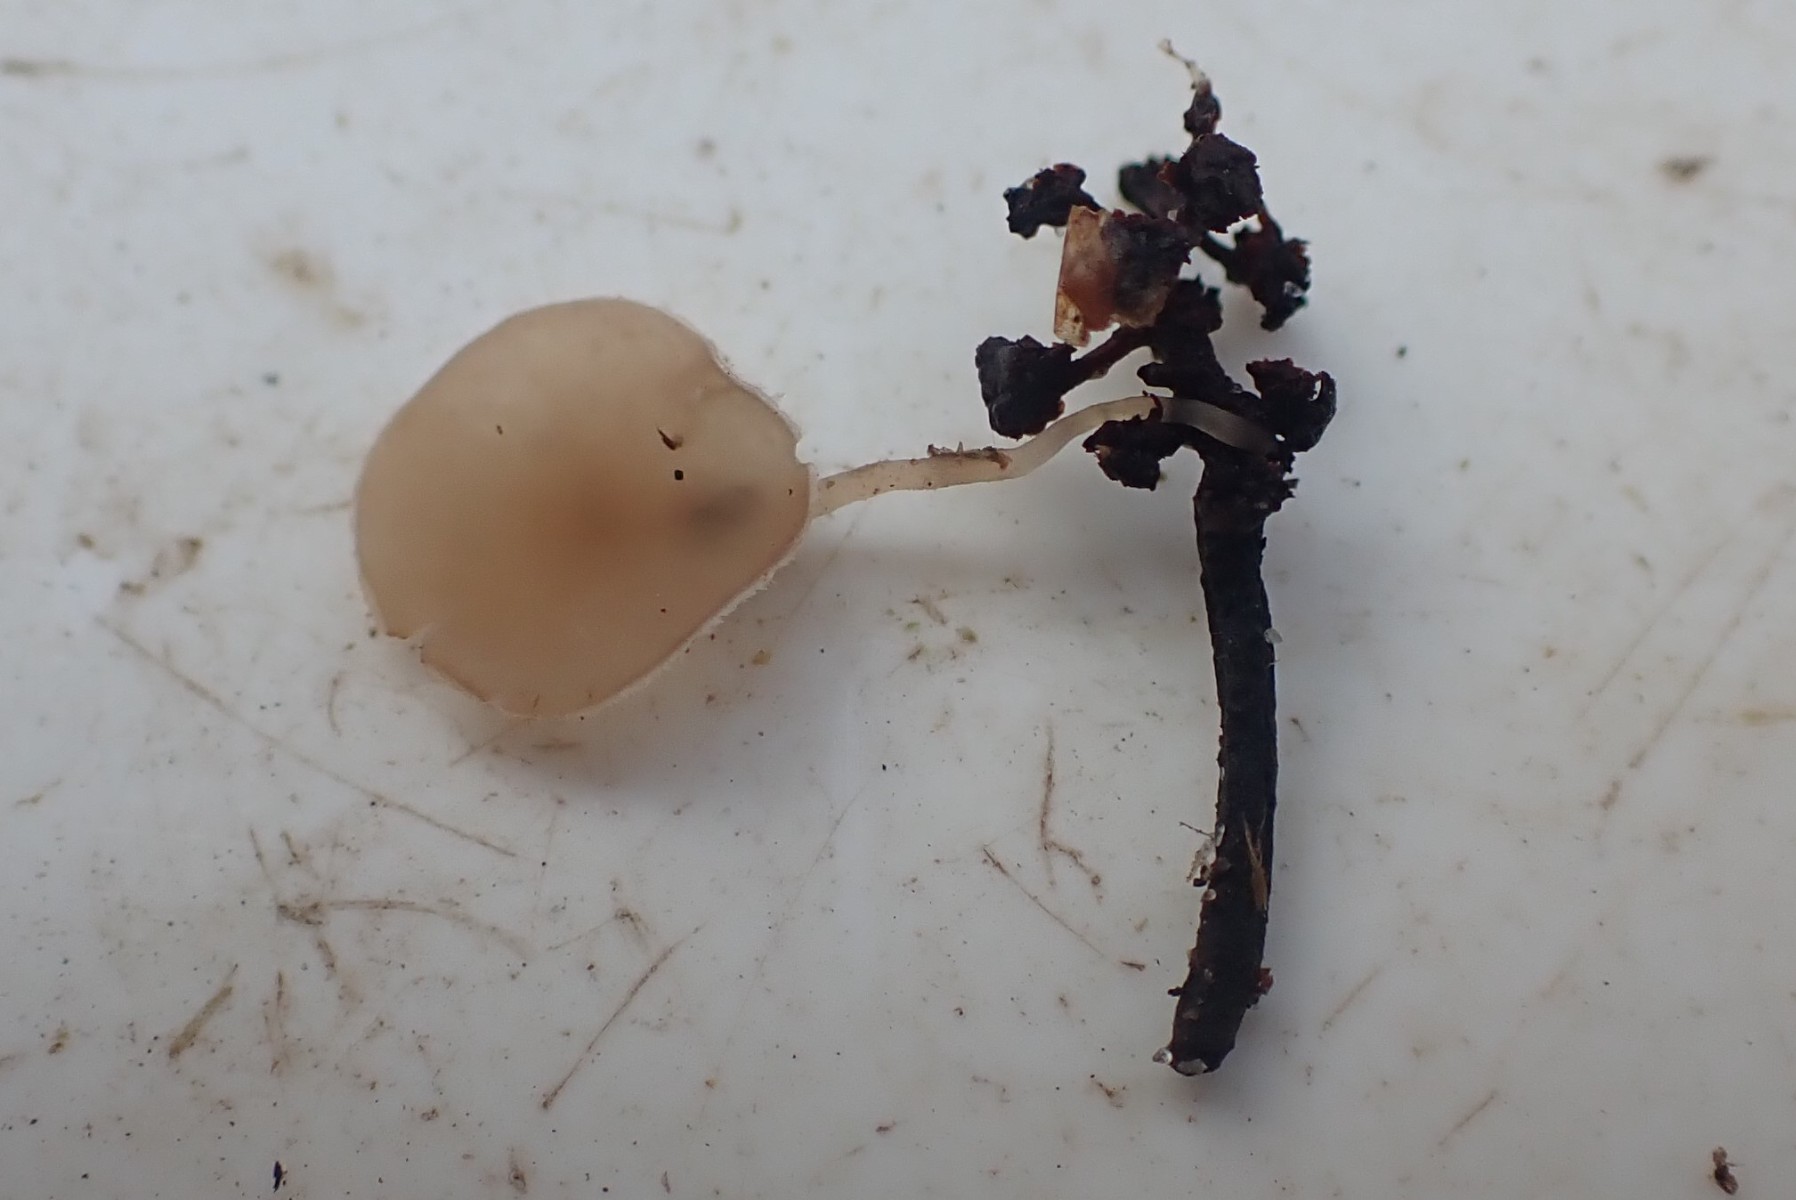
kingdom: Fungi
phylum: Ascomycota
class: Leotiomycetes
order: Helotiales
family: Sclerotiniaceae
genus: Ciboria
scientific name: Ciboria amentacea
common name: ellerakle-knoldskive
